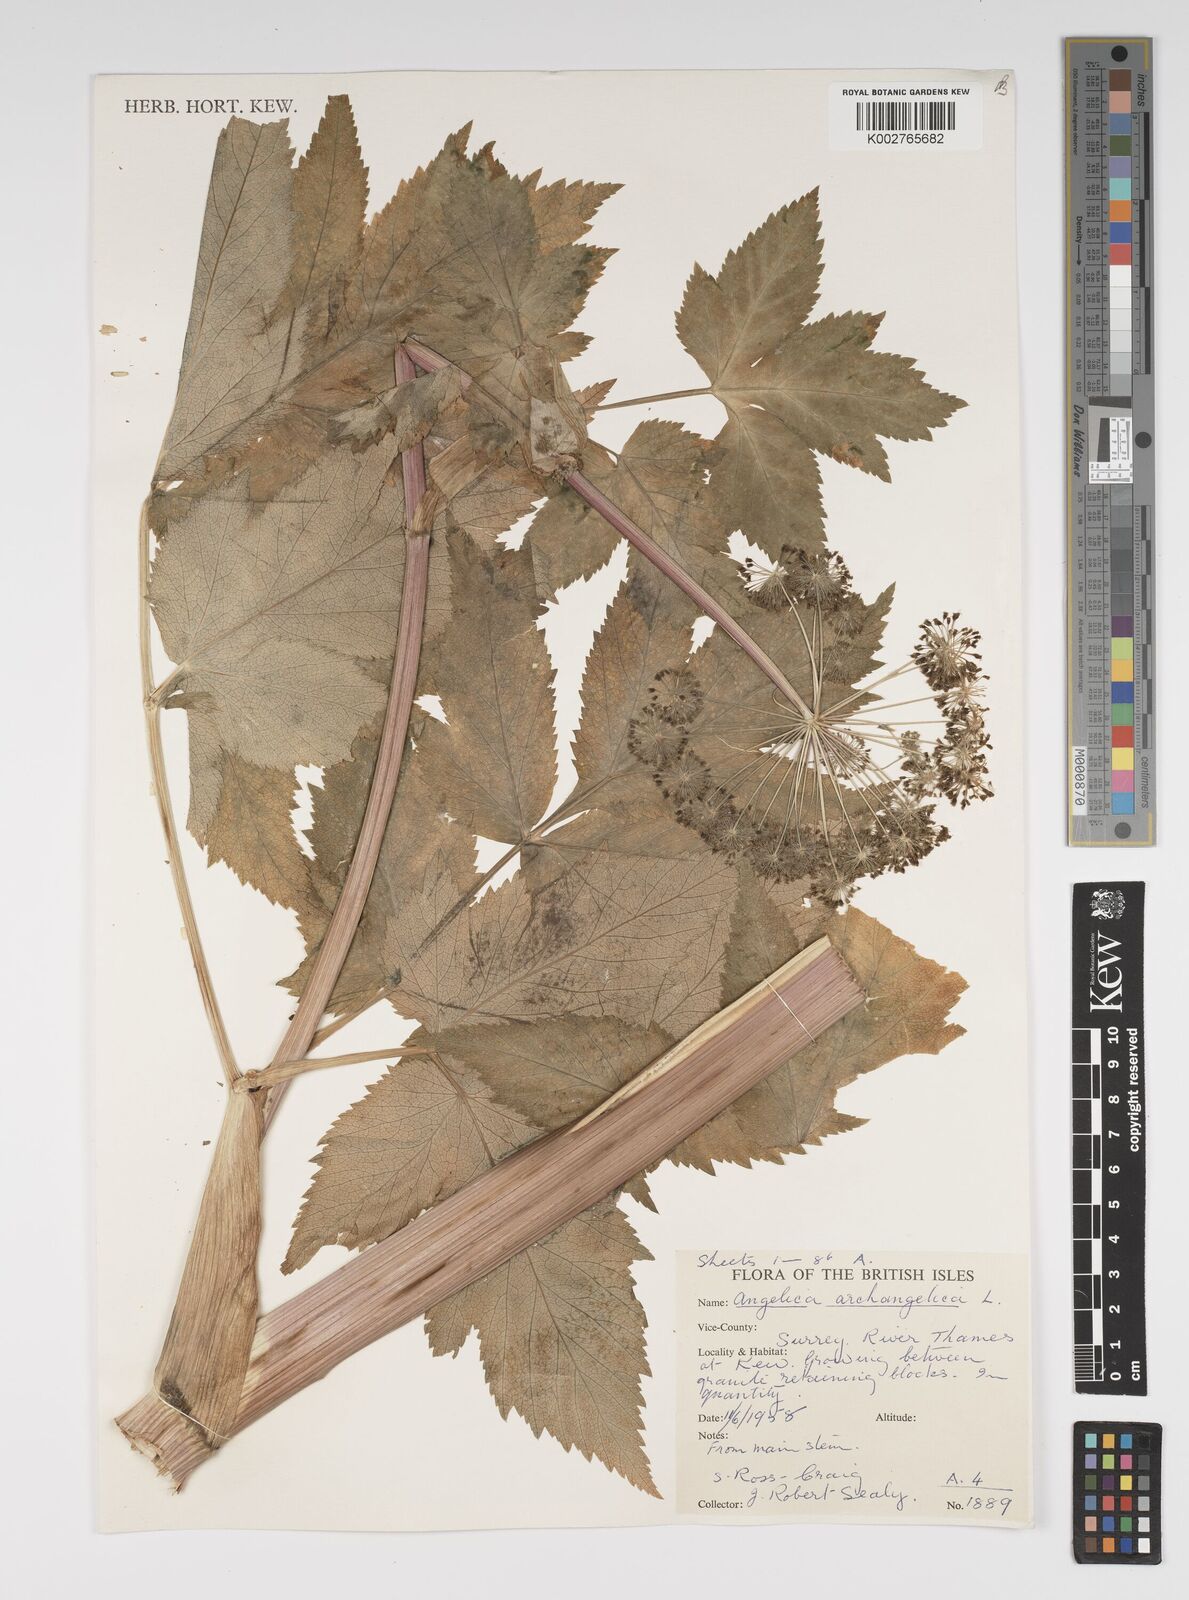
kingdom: Plantae
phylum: Tracheophyta
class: Magnoliopsida
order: Apiales
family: Apiaceae
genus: Angelica
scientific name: Angelica archangelica
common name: Garden angelica
